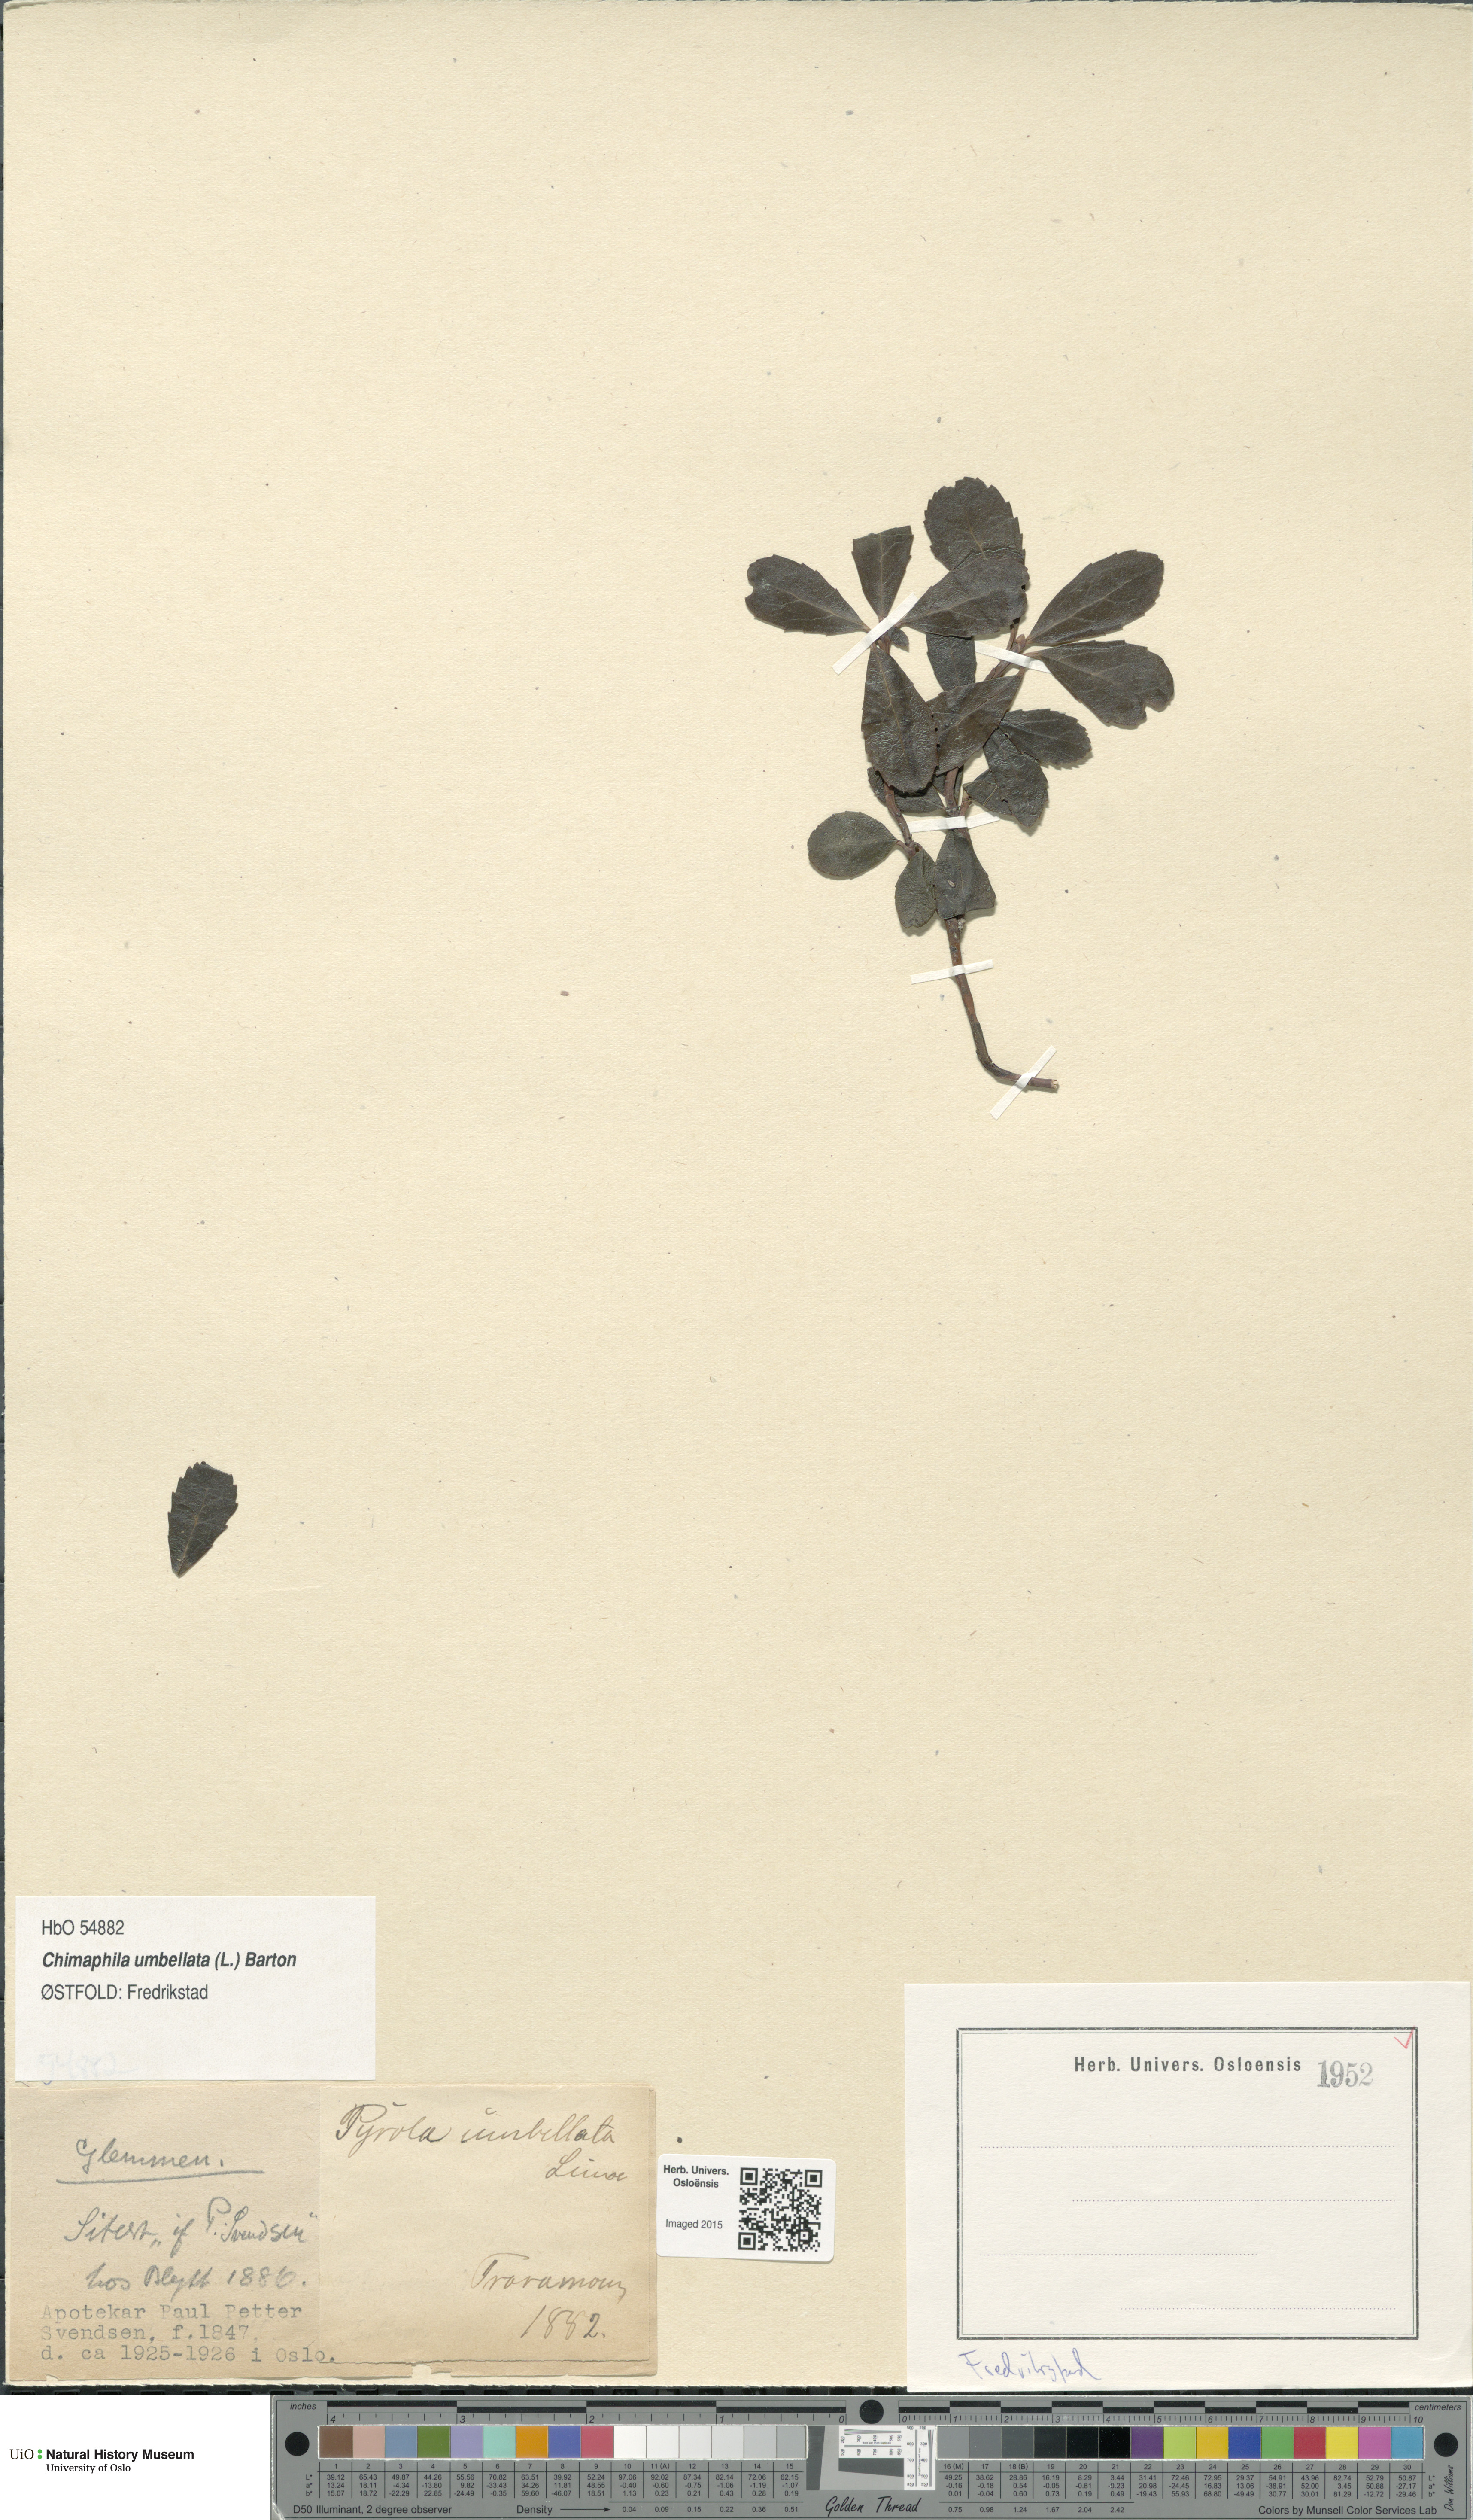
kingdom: Plantae
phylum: Tracheophyta
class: Magnoliopsida
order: Ericales
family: Ericaceae
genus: Chimaphila
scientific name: Chimaphila umbellata
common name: Pipsissewa
